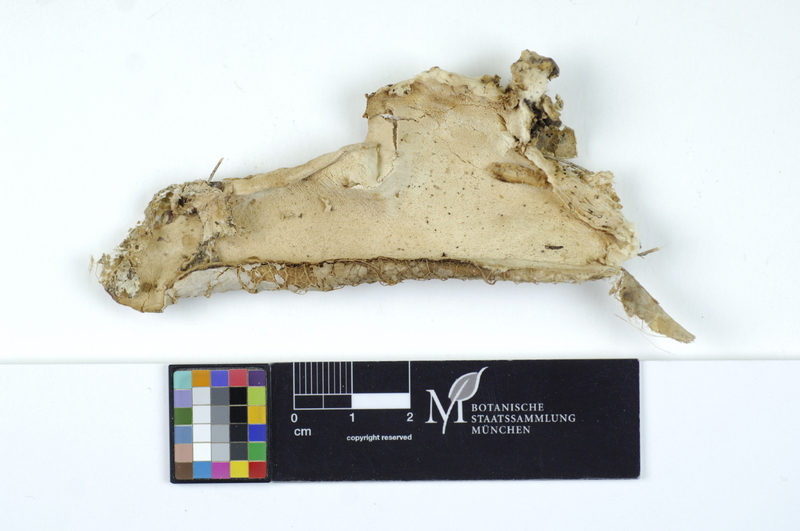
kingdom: Fungi
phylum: Basidiomycota
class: Agaricomycetes
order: Polyporales
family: Fibroporiaceae
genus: Fibroporia
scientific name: Fibroporia vaillantii
